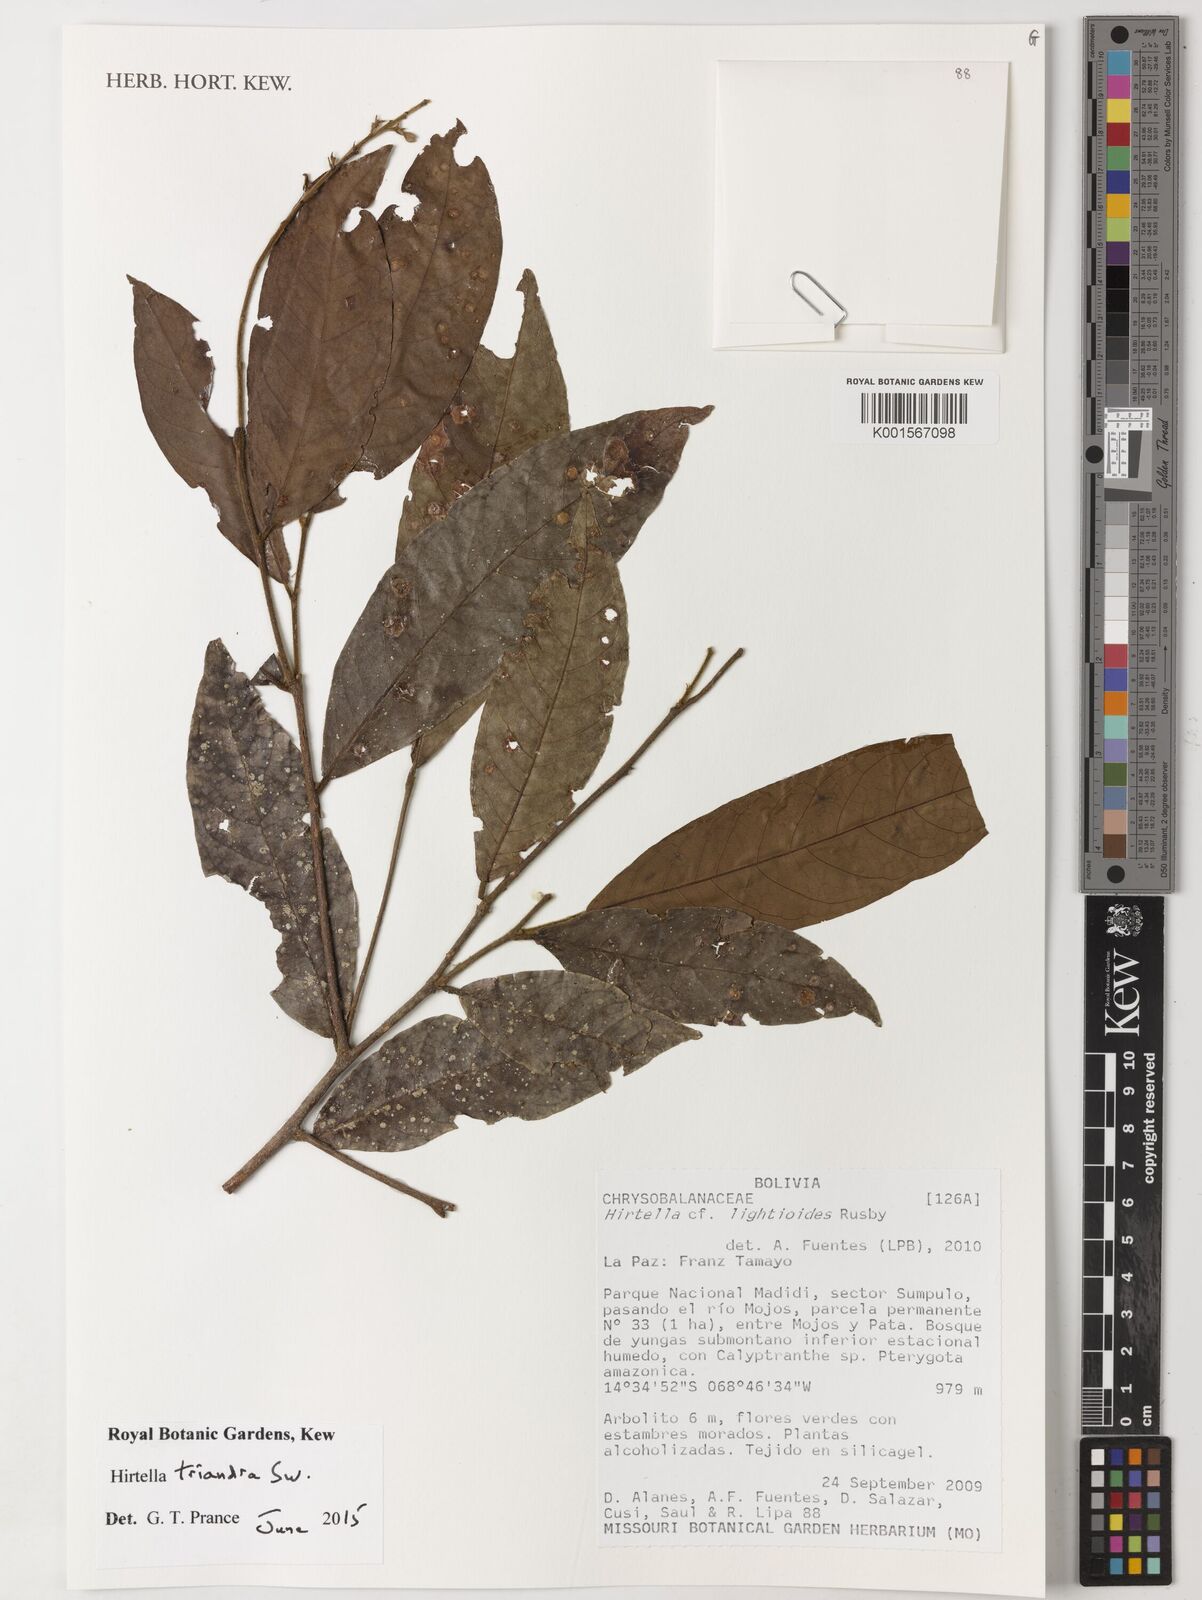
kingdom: Plantae
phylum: Tracheophyta
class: Magnoliopsida
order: Malpighiales
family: Chrysobalanaceae
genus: Hirtella
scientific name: Hirtella triandra
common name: Hairy plum
